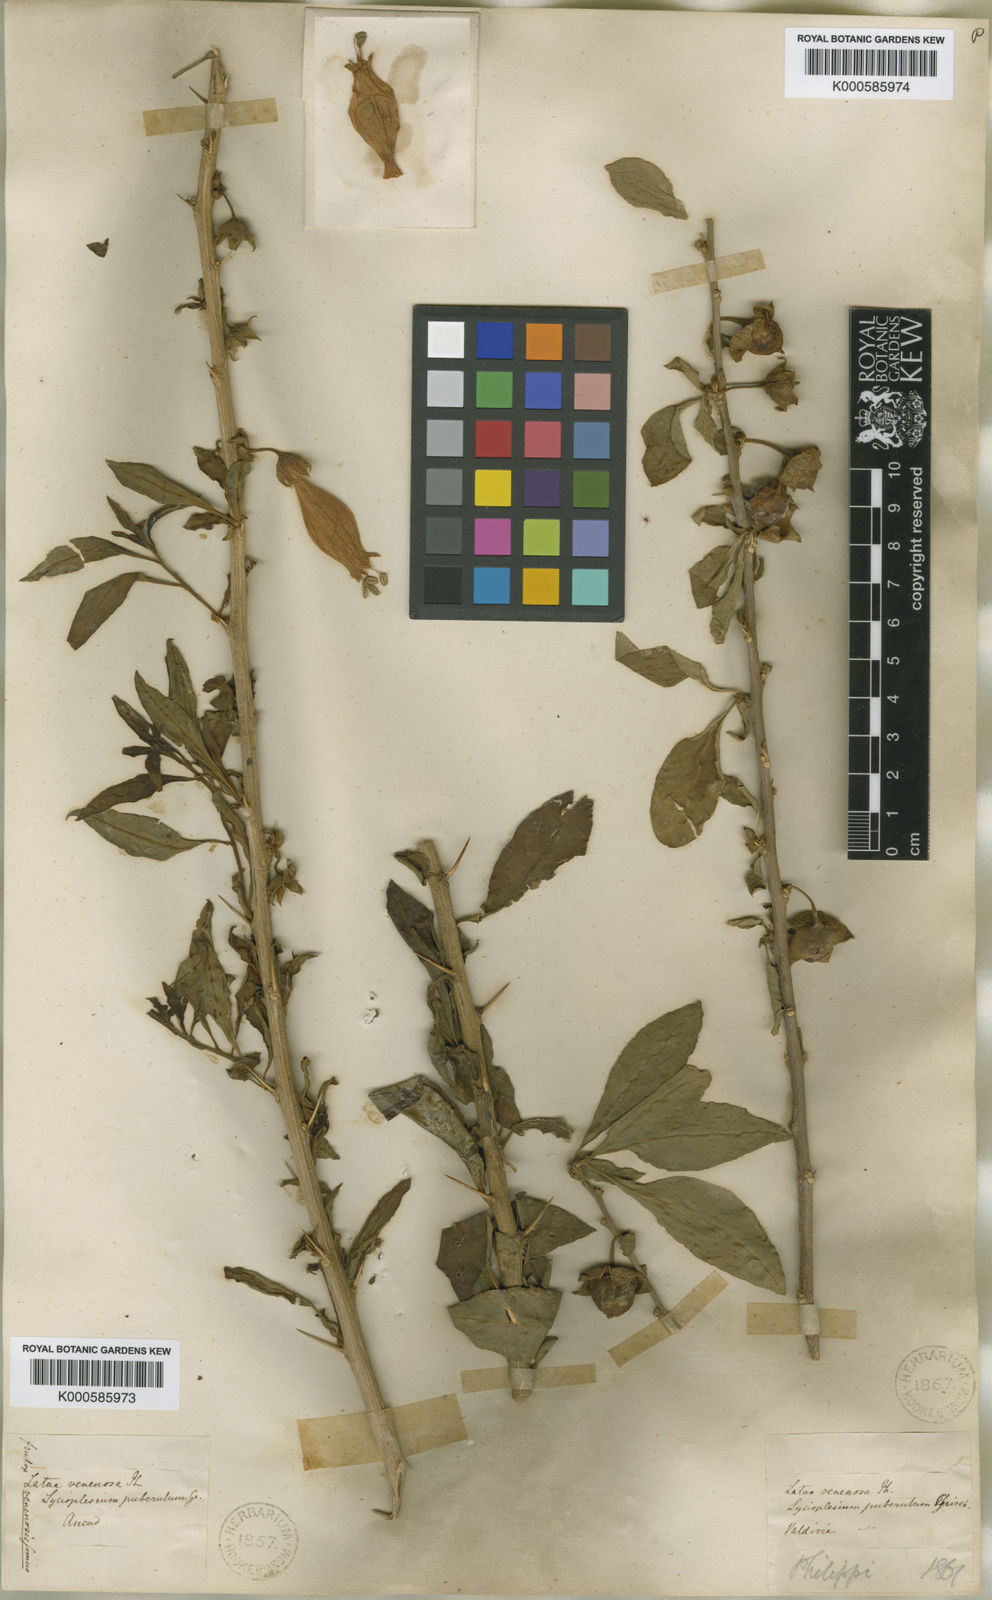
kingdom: Plantae
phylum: Tracheophyta
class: Magnoliopsida
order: Solanales
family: Solanaceae
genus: Latua
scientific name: Latua pubiflora
